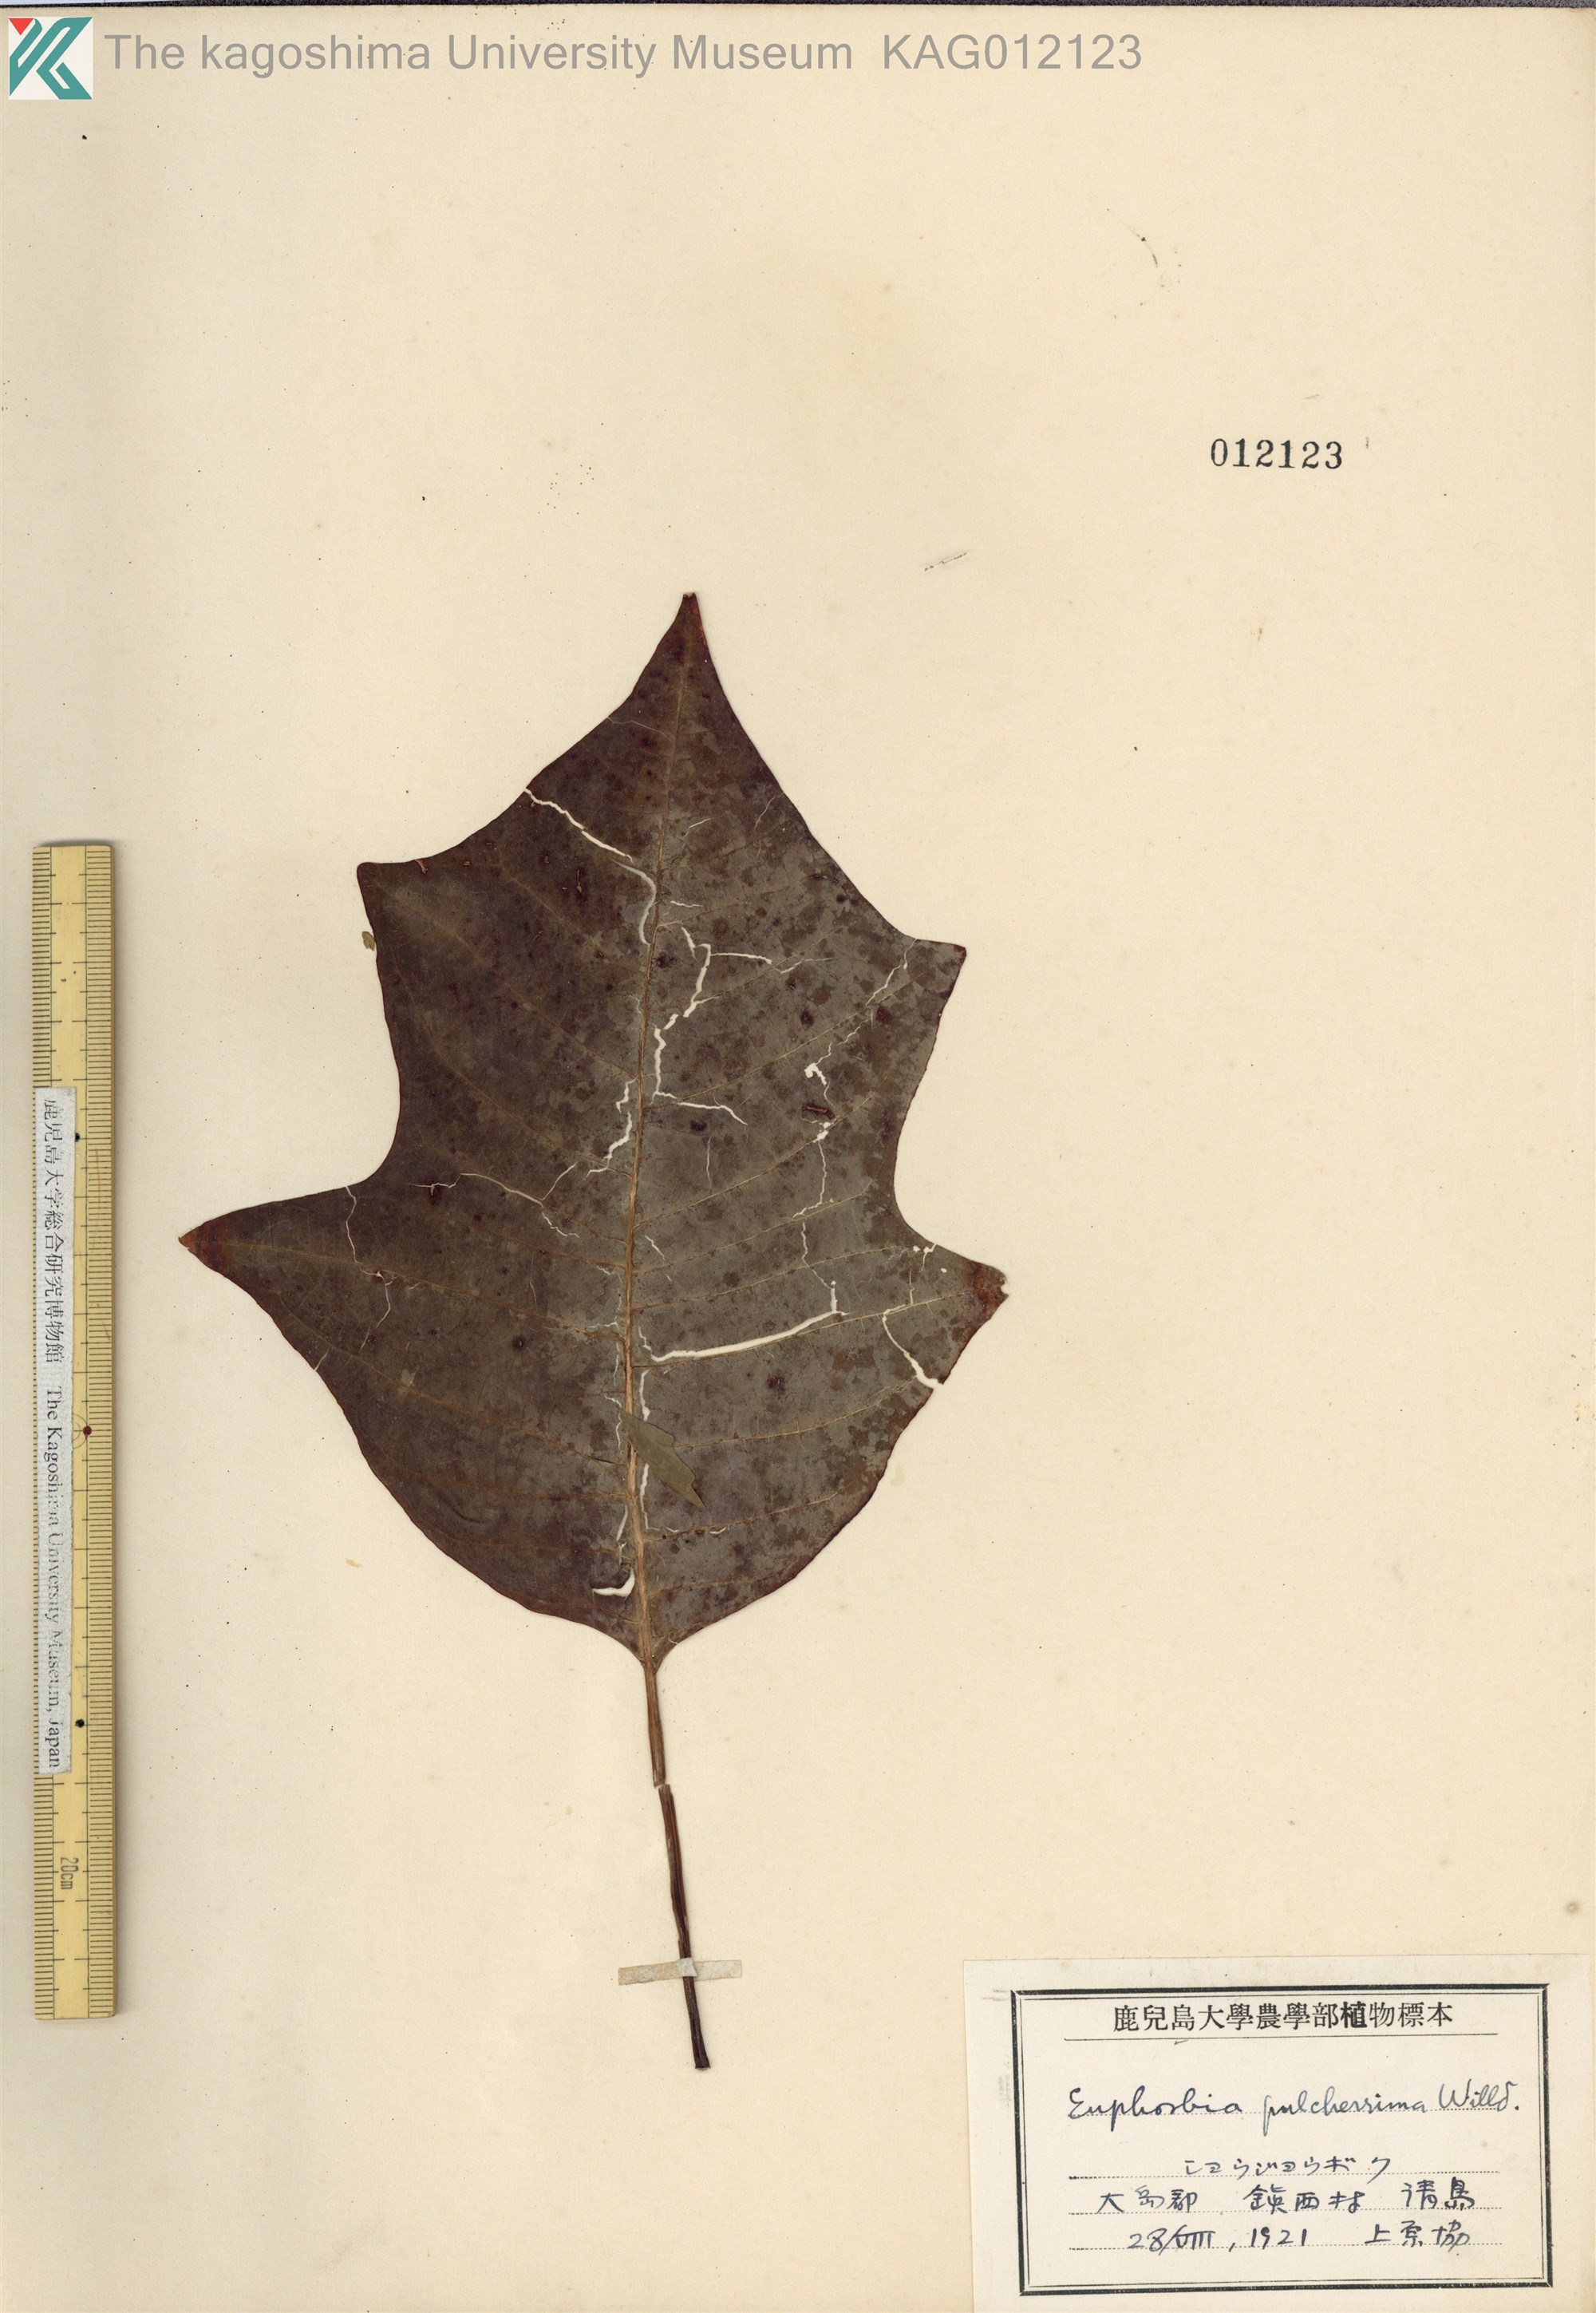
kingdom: Plantae
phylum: Tracheophyta
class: Magnoliopsida
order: Malpighiales
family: Euphorbiaceae
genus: Euphorbia
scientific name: Euphorbia pulcherrima
